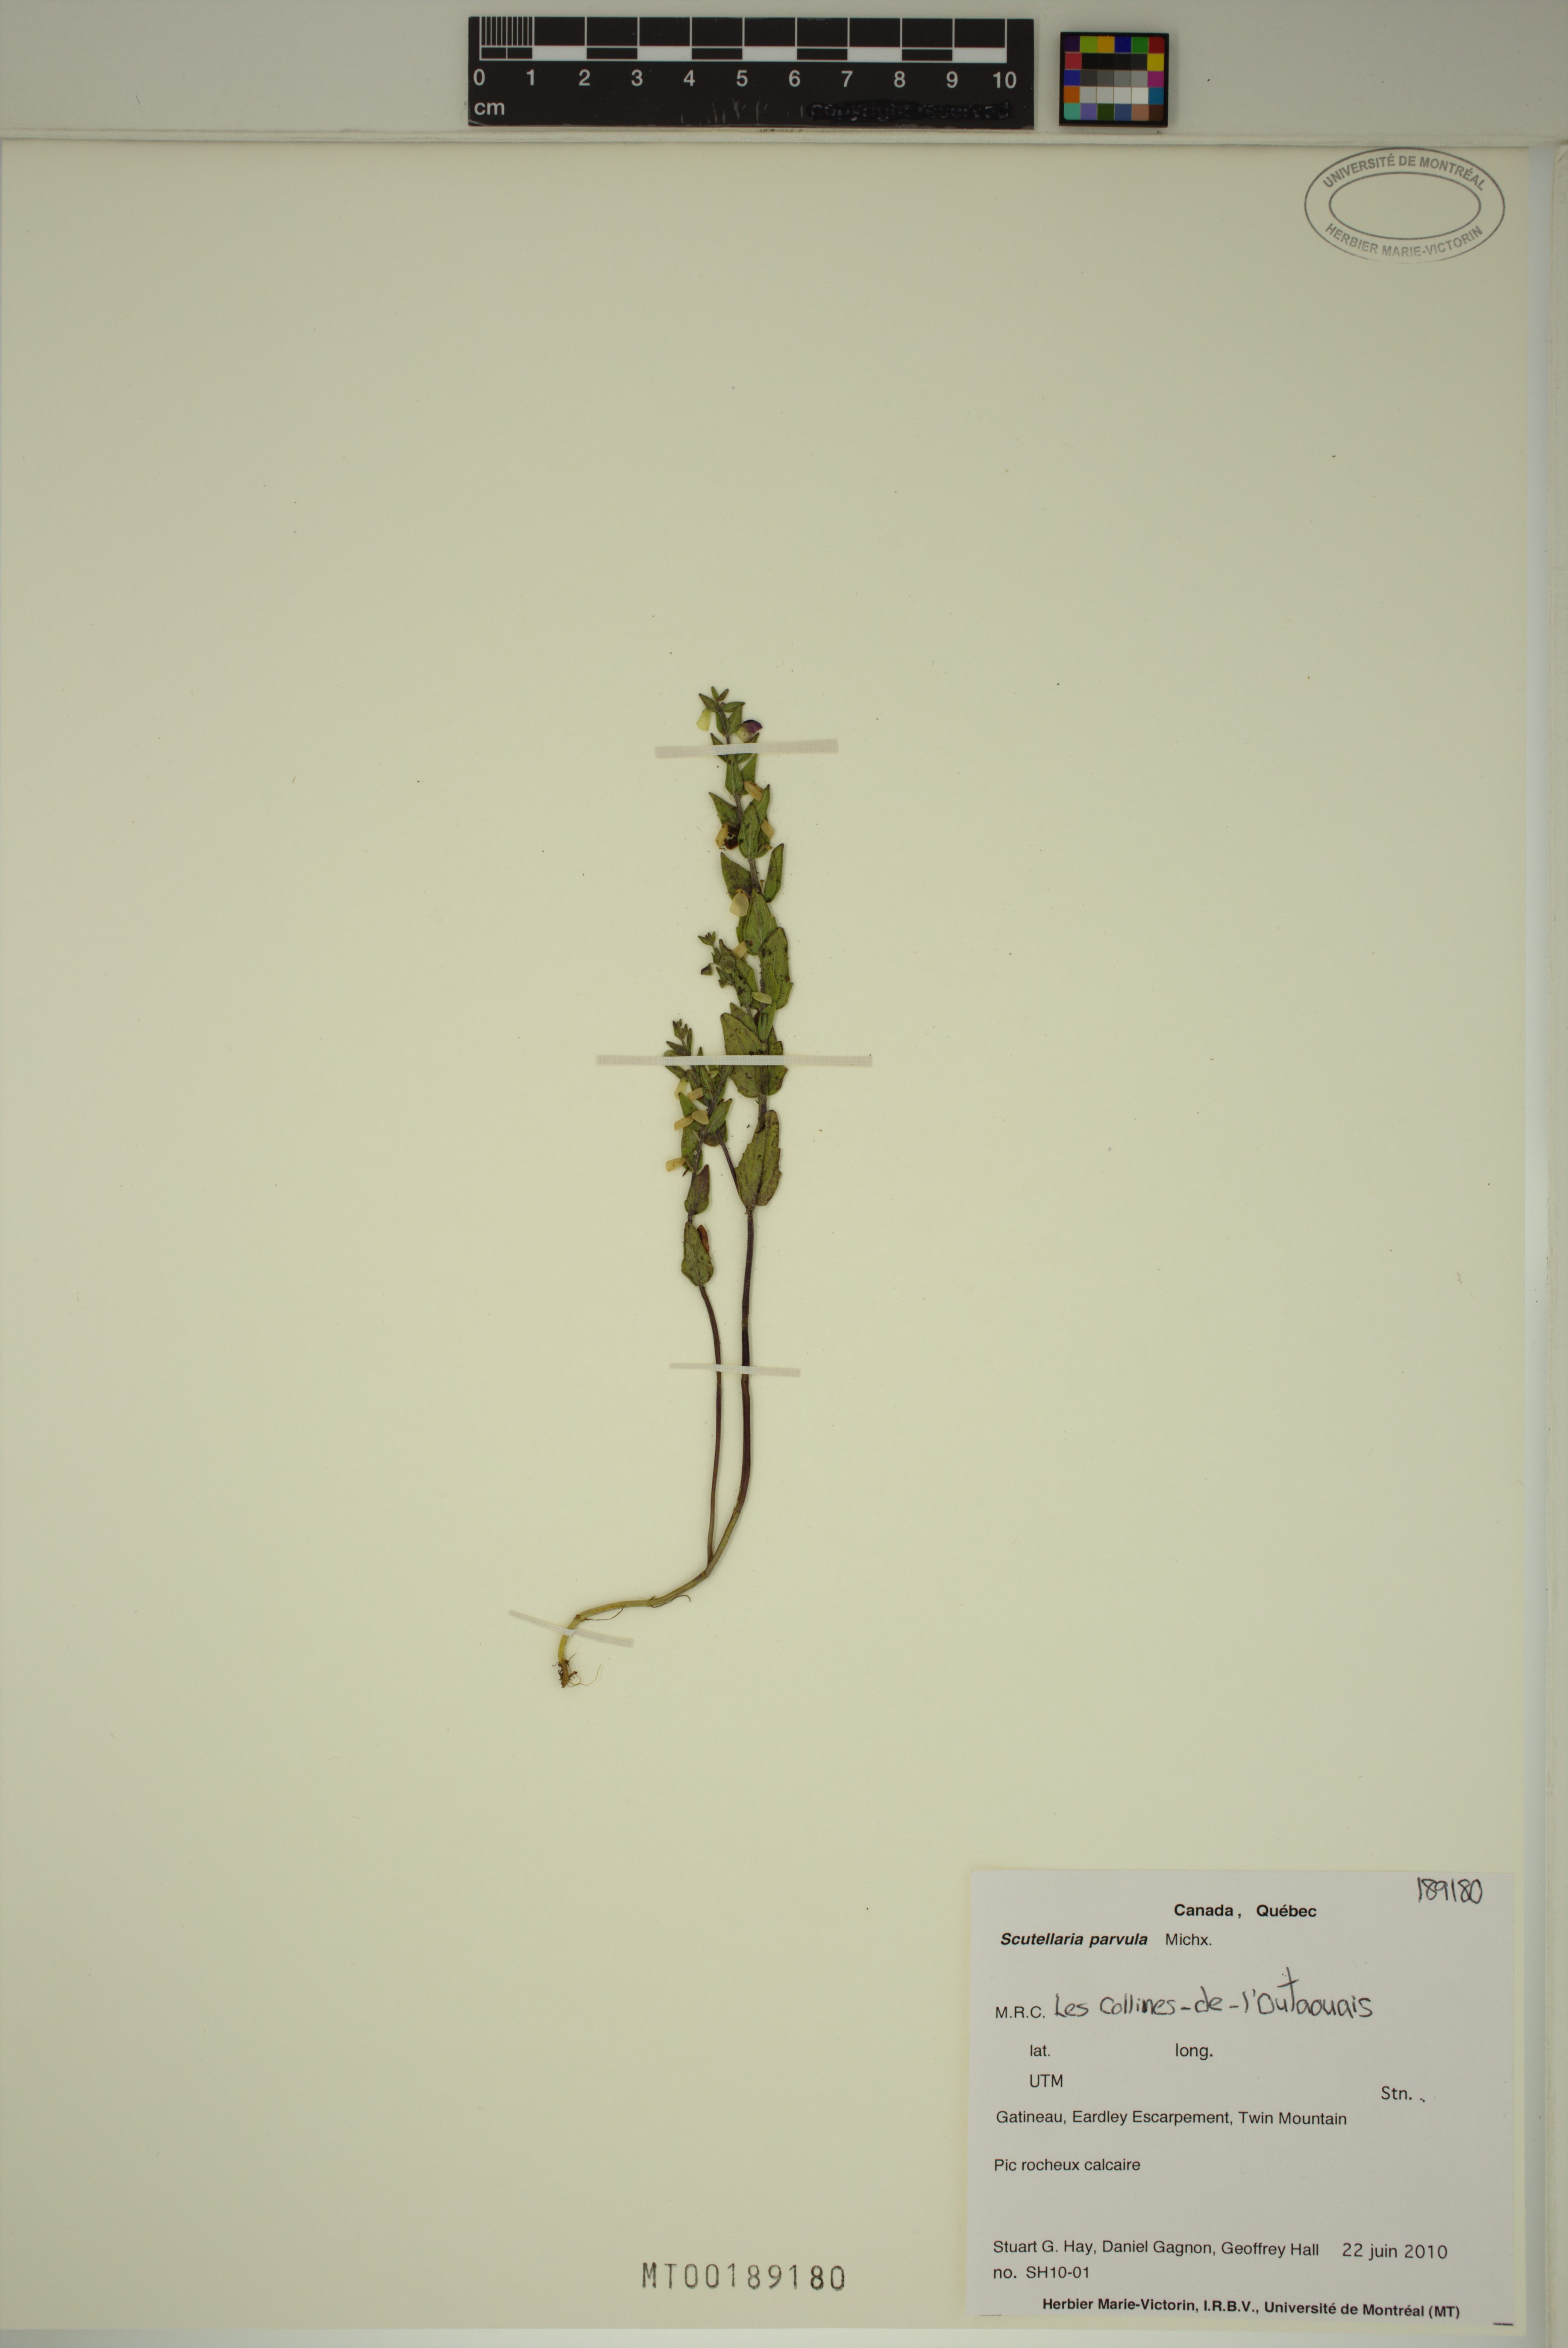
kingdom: Plantae
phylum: Tracheophyta
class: Magnoliopsida
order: Lamiales
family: Lamiaceae
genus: Scutellaria
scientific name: Scutellaria parvula
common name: Little scullcap
